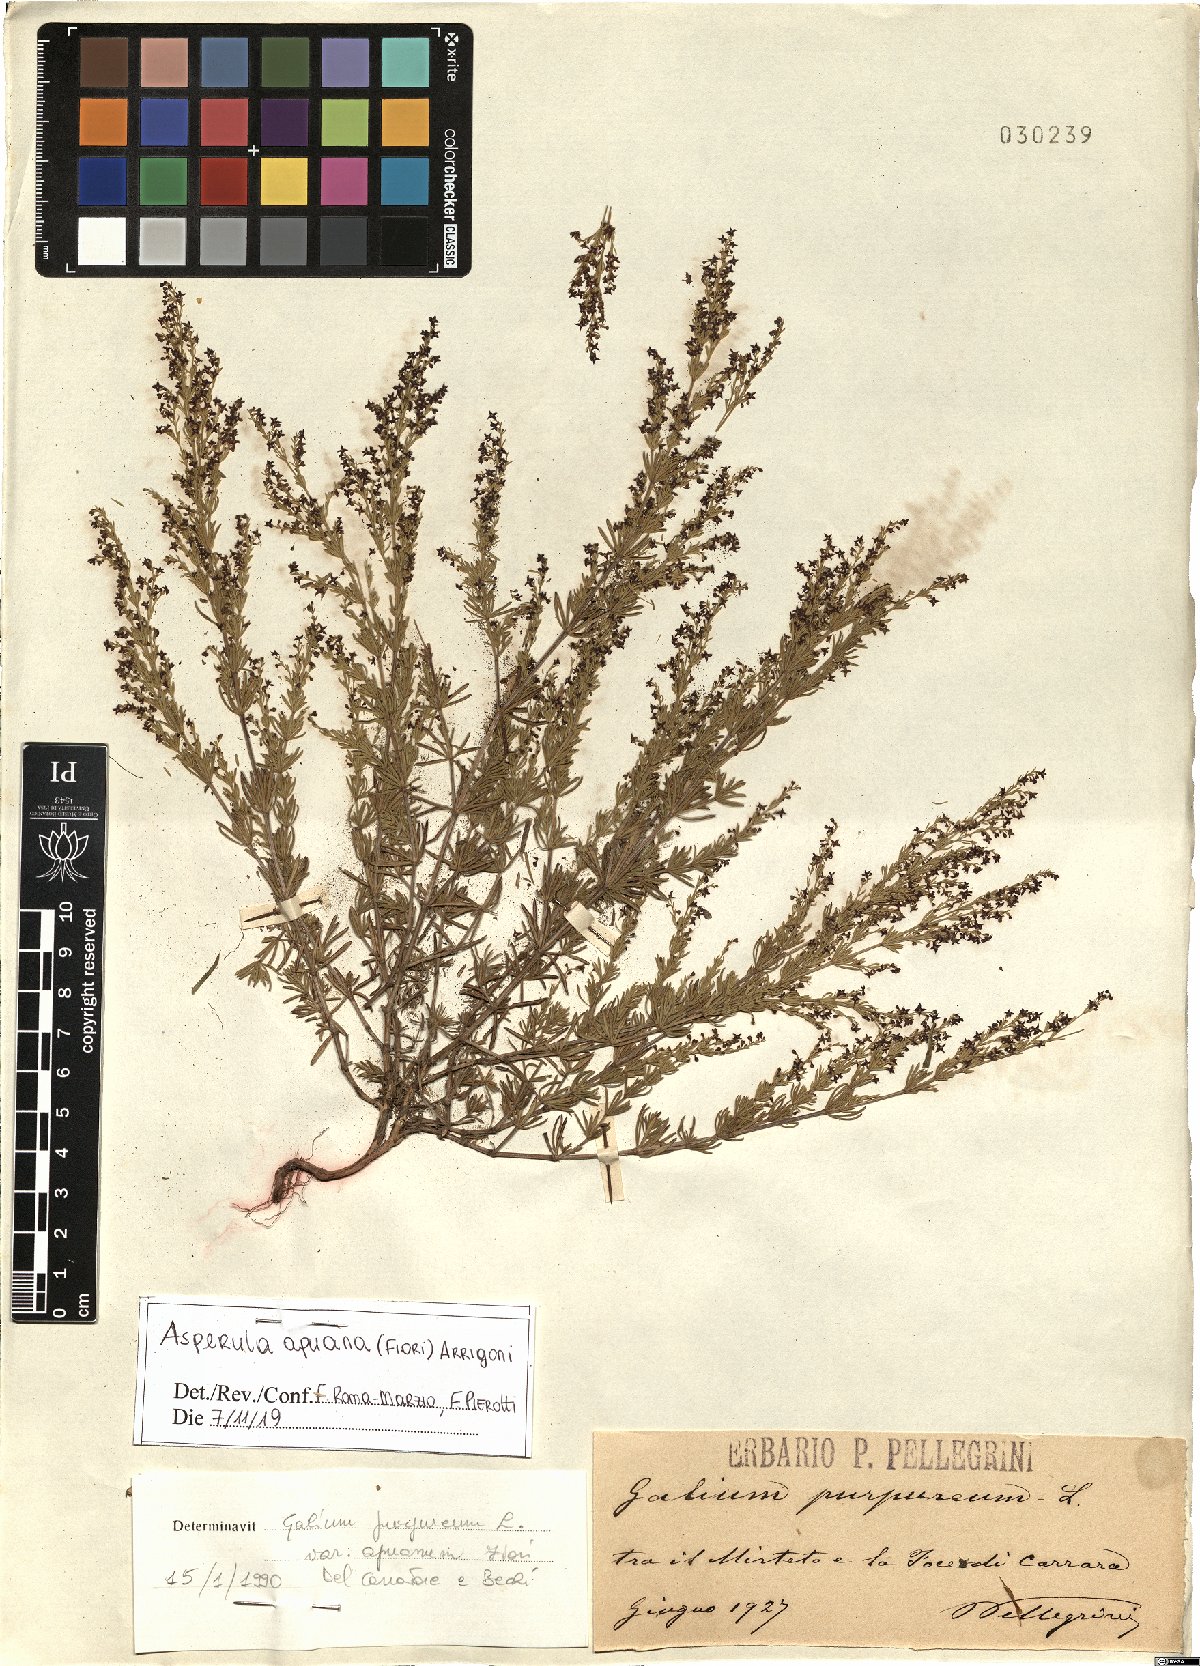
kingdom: Plantae
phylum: Tracheophyta
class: Magnoliopsida
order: Gentianales
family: Rubiaceae
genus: Thliphthisa
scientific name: Thliphthisa apuana
